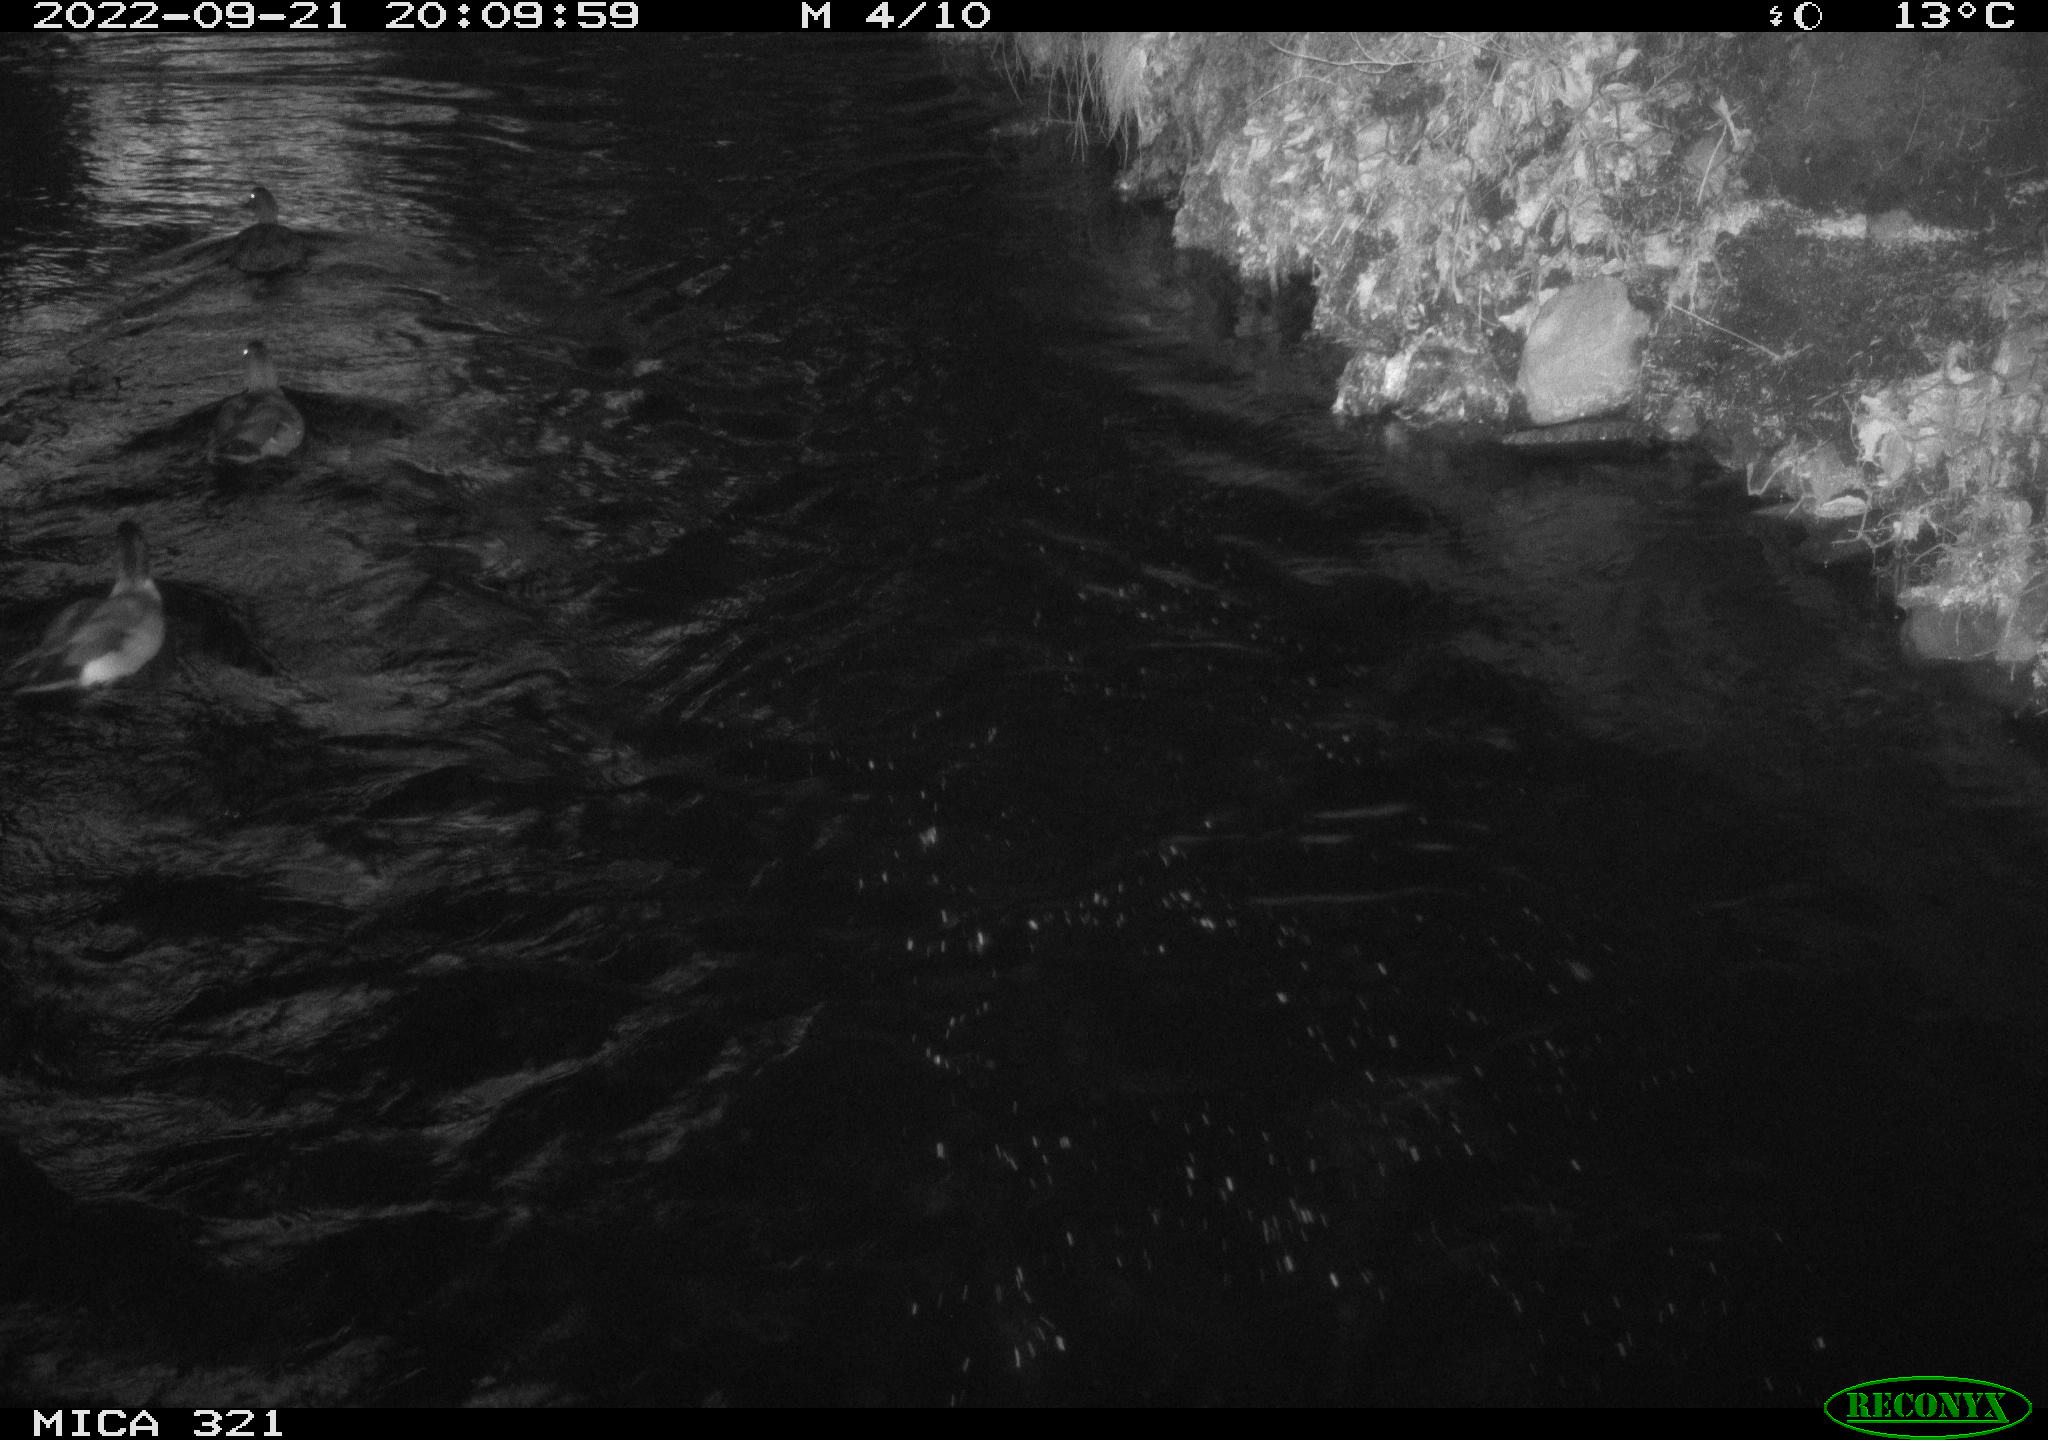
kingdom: Animalia
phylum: Chordata
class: Aves
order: Anseriformes
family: Anatidae
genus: Anas
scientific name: Anas
